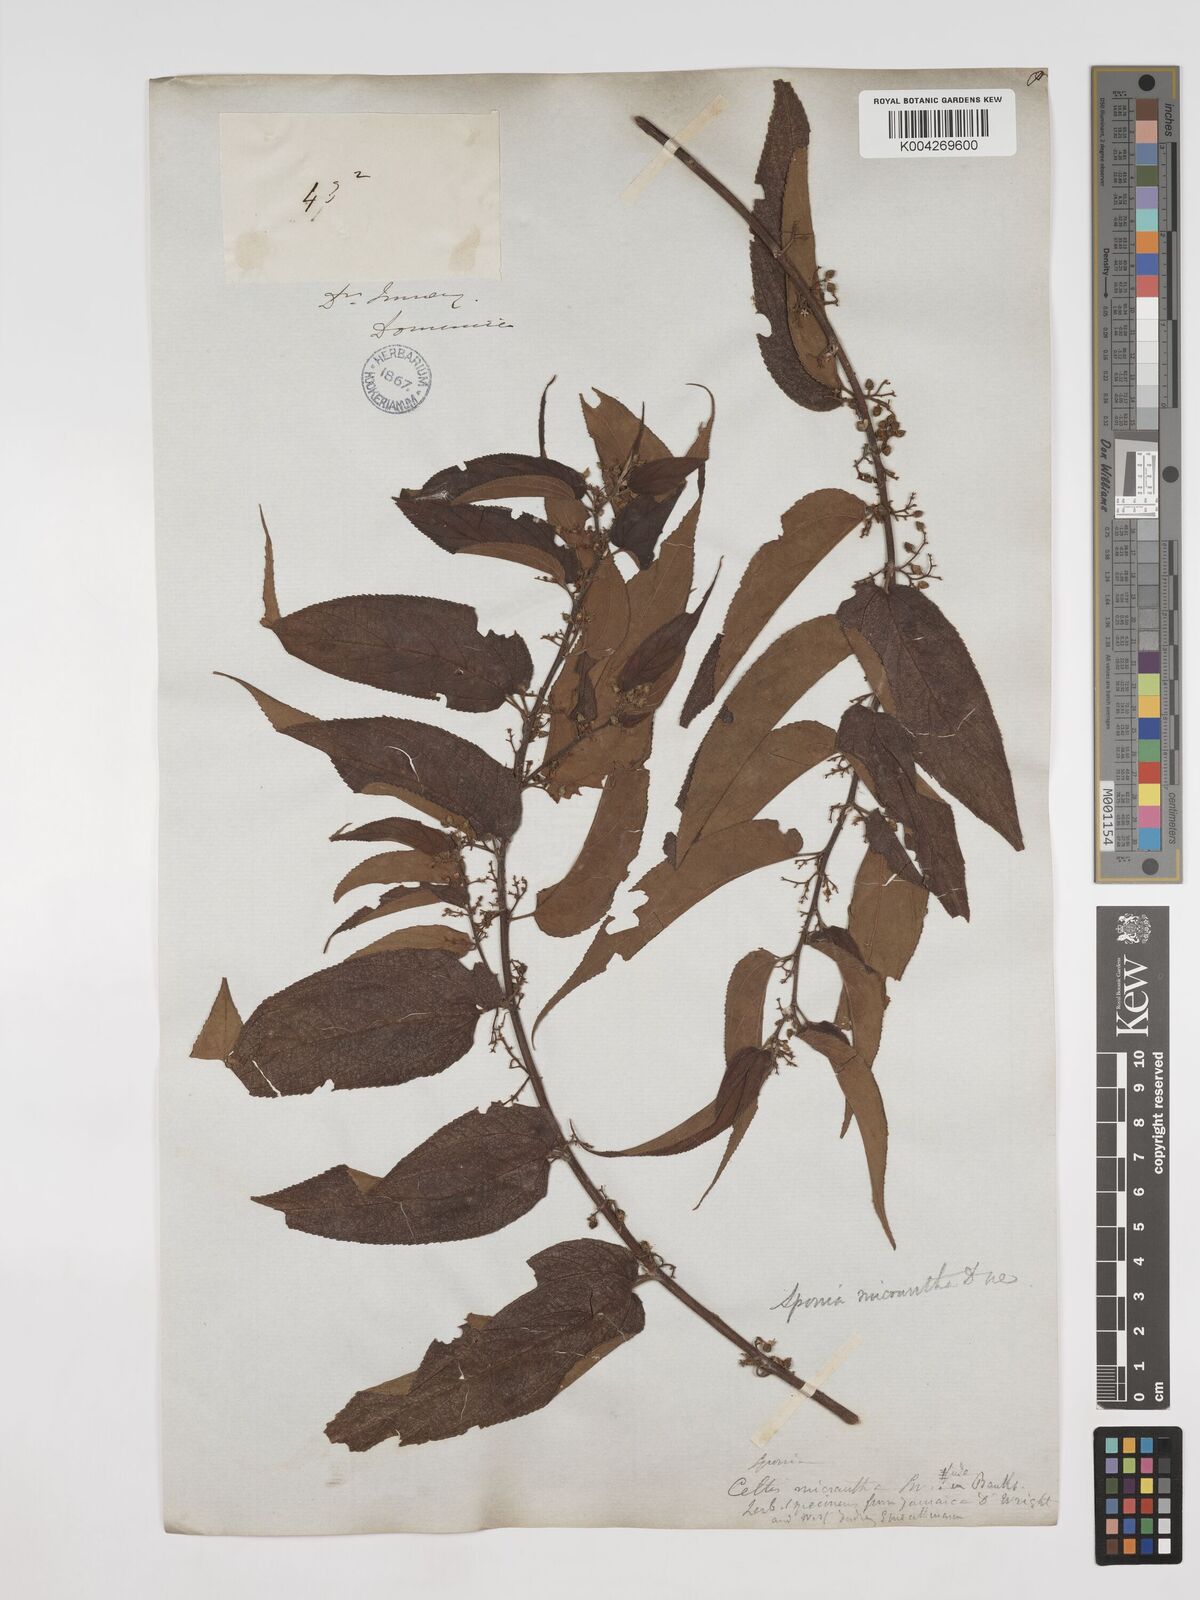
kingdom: Plantae
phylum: Tracheophyta
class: Magnoliopsida
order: Rosales
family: Cannabaceae
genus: Trema
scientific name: Trema micranthum
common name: Jamaican nettletree
